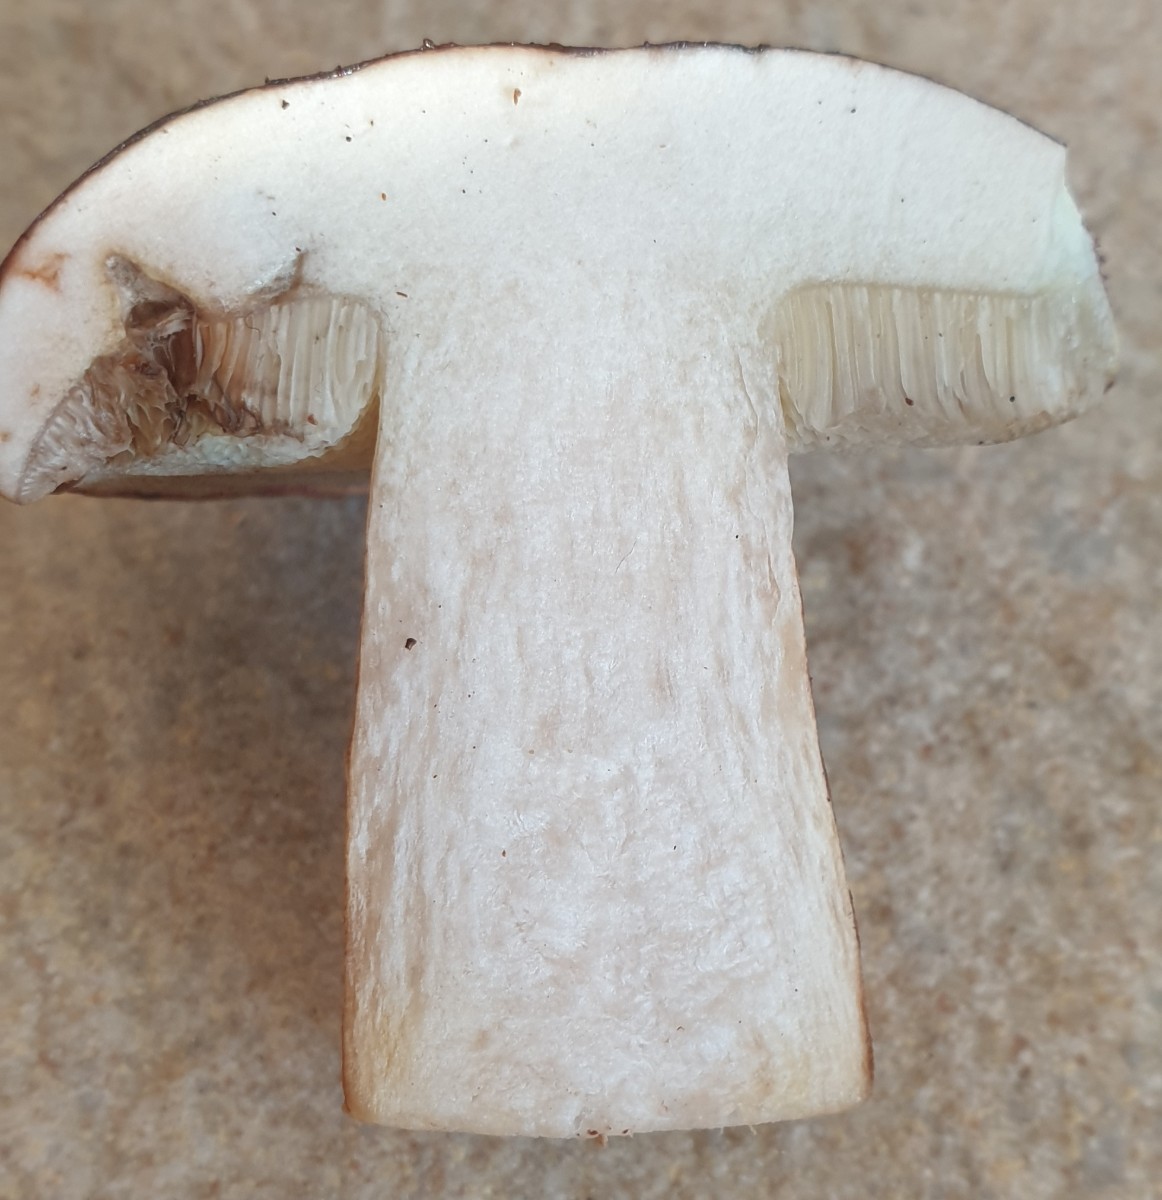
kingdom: Fungi
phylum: Basidiomycota
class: Agaricomycetes
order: Boletales
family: Boletaceae
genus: Imleria
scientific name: Imleria badia
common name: brunstokket rørhat
